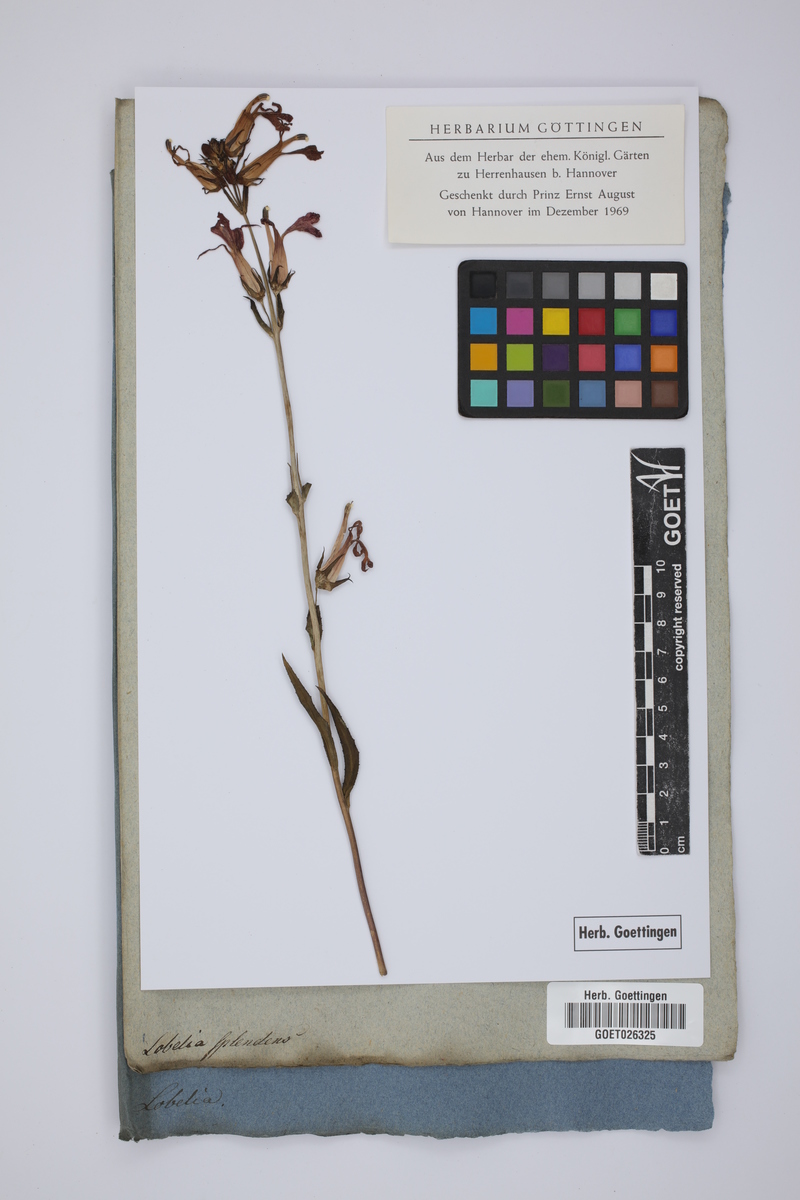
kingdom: Plantae
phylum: Tracheophyta
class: Magnoliopsida
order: Asterales
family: Campanulaceae
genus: Lobelia
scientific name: Lobelia cardinalis
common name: Cardinal flower
